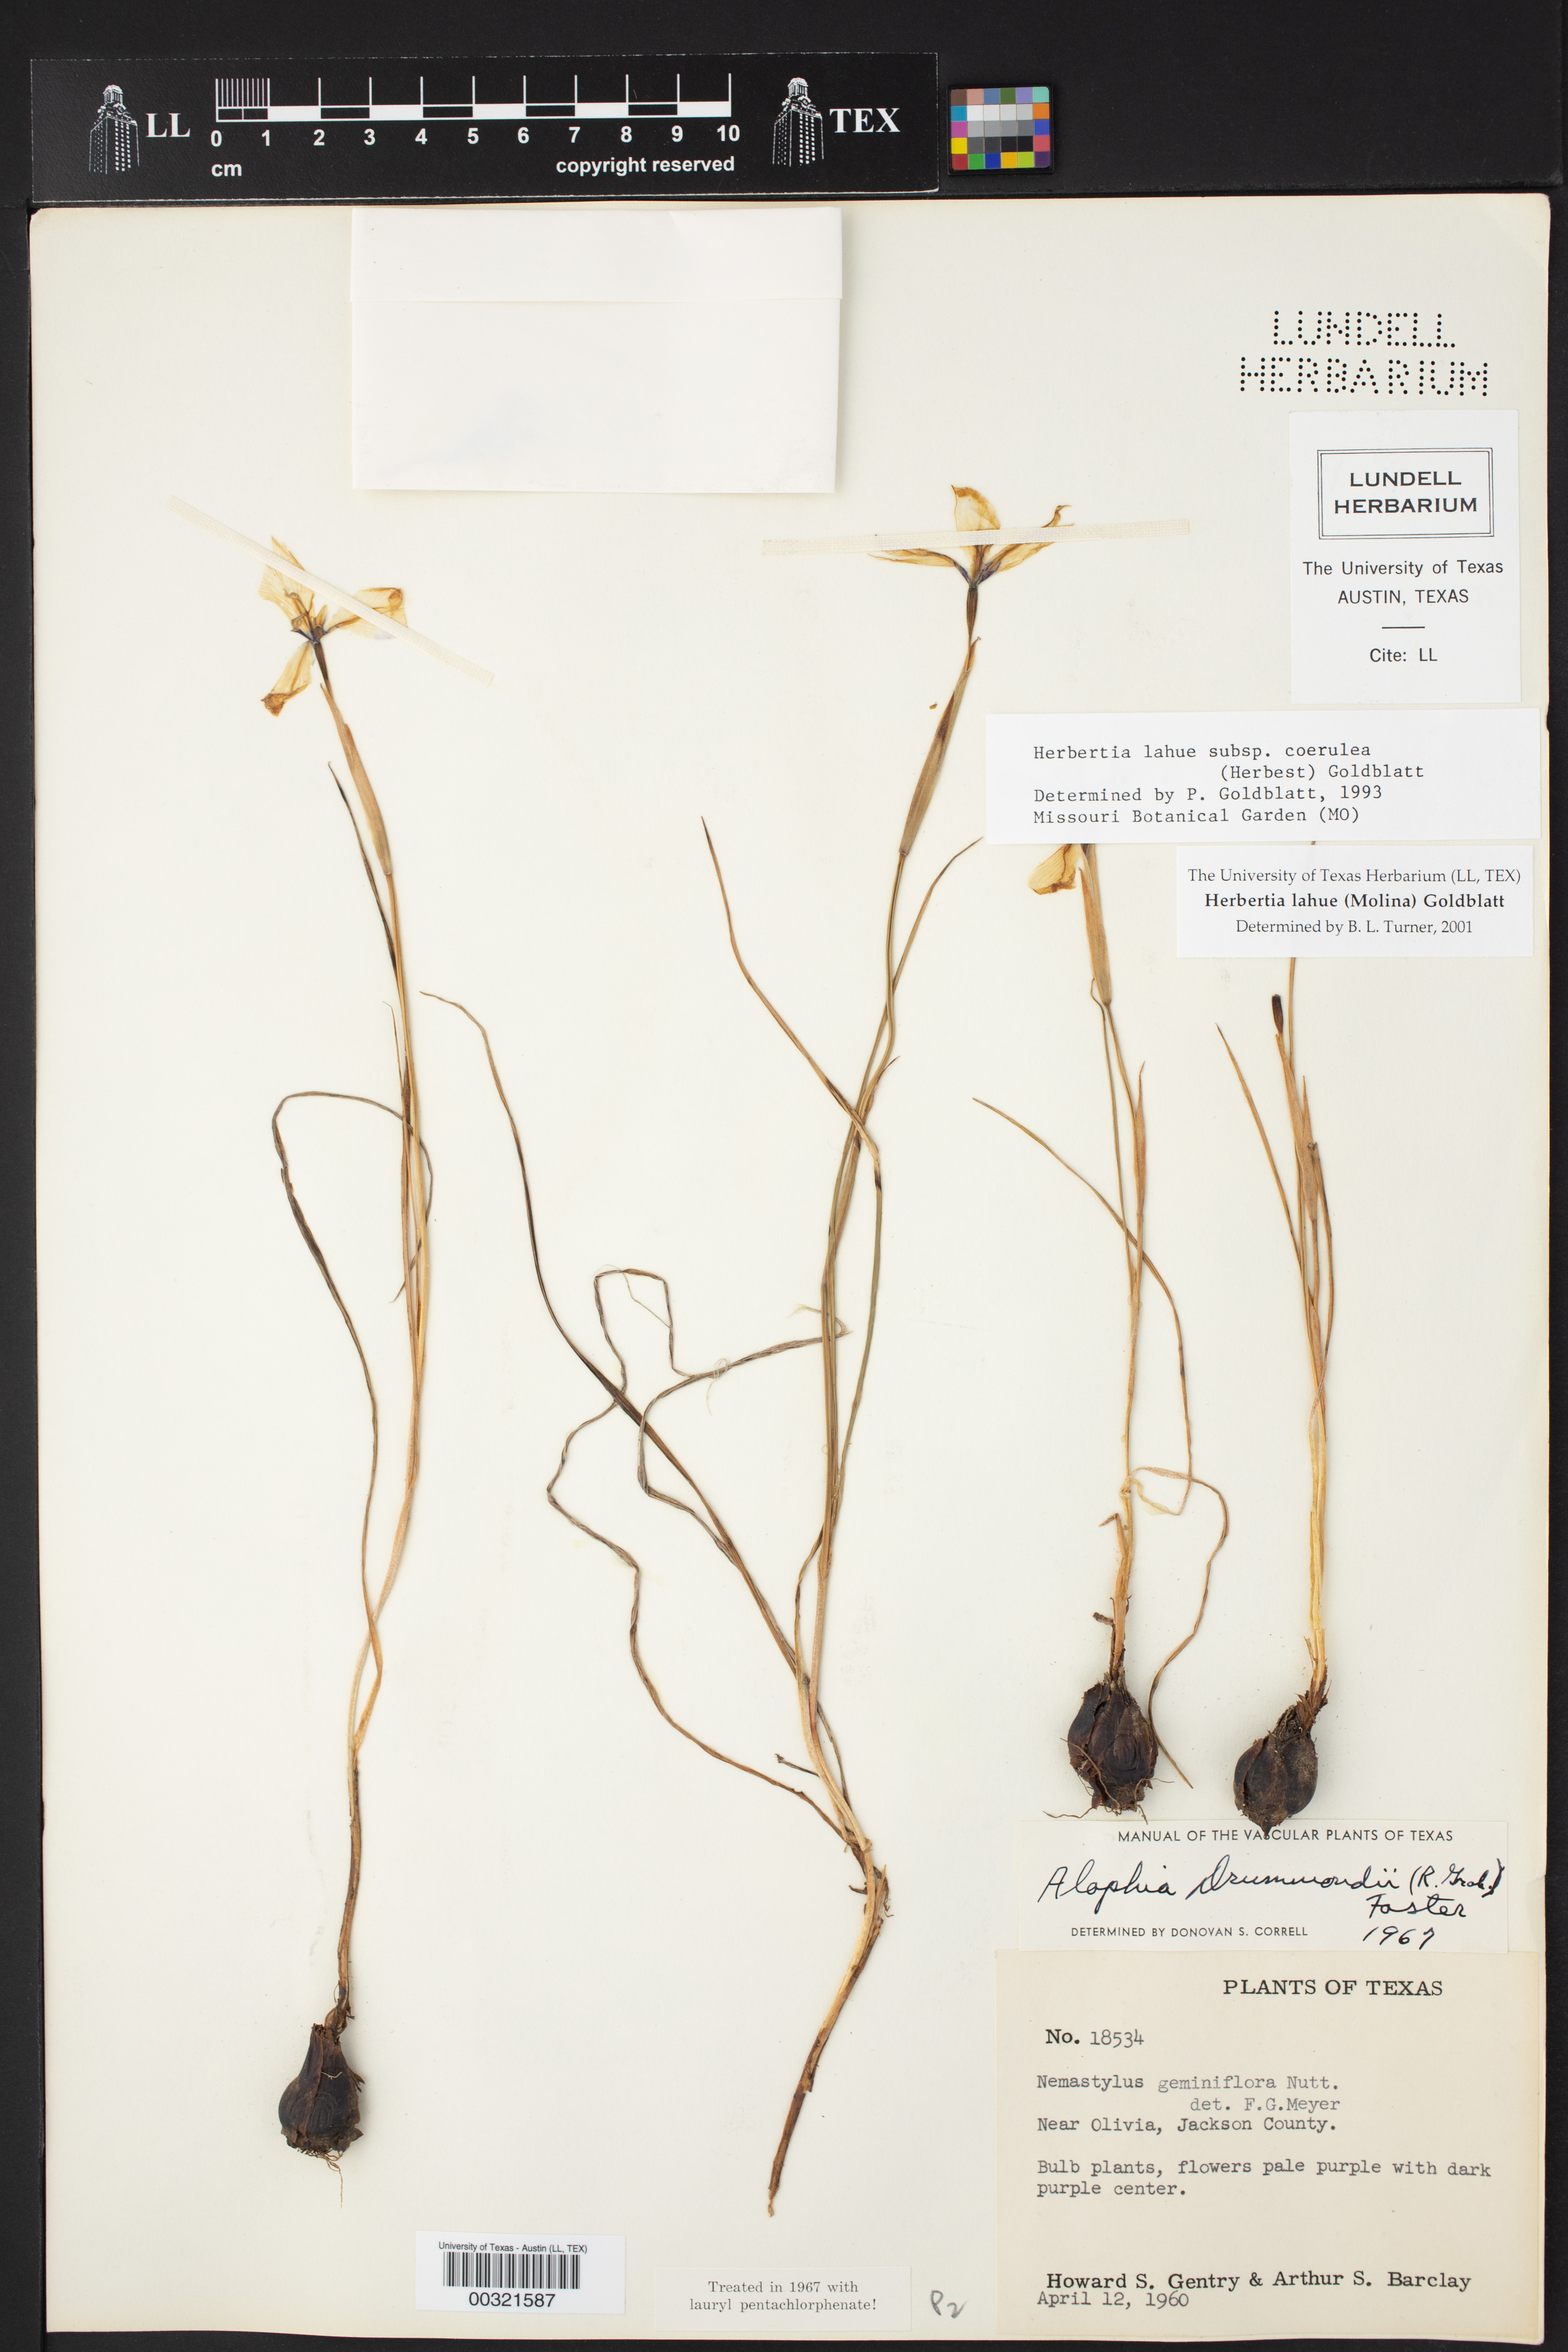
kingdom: Plantae
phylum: Tracheophyta
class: Liliopsida
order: Asparagales
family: Iridaceae
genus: Herbertia
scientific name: Herbertia lahue
